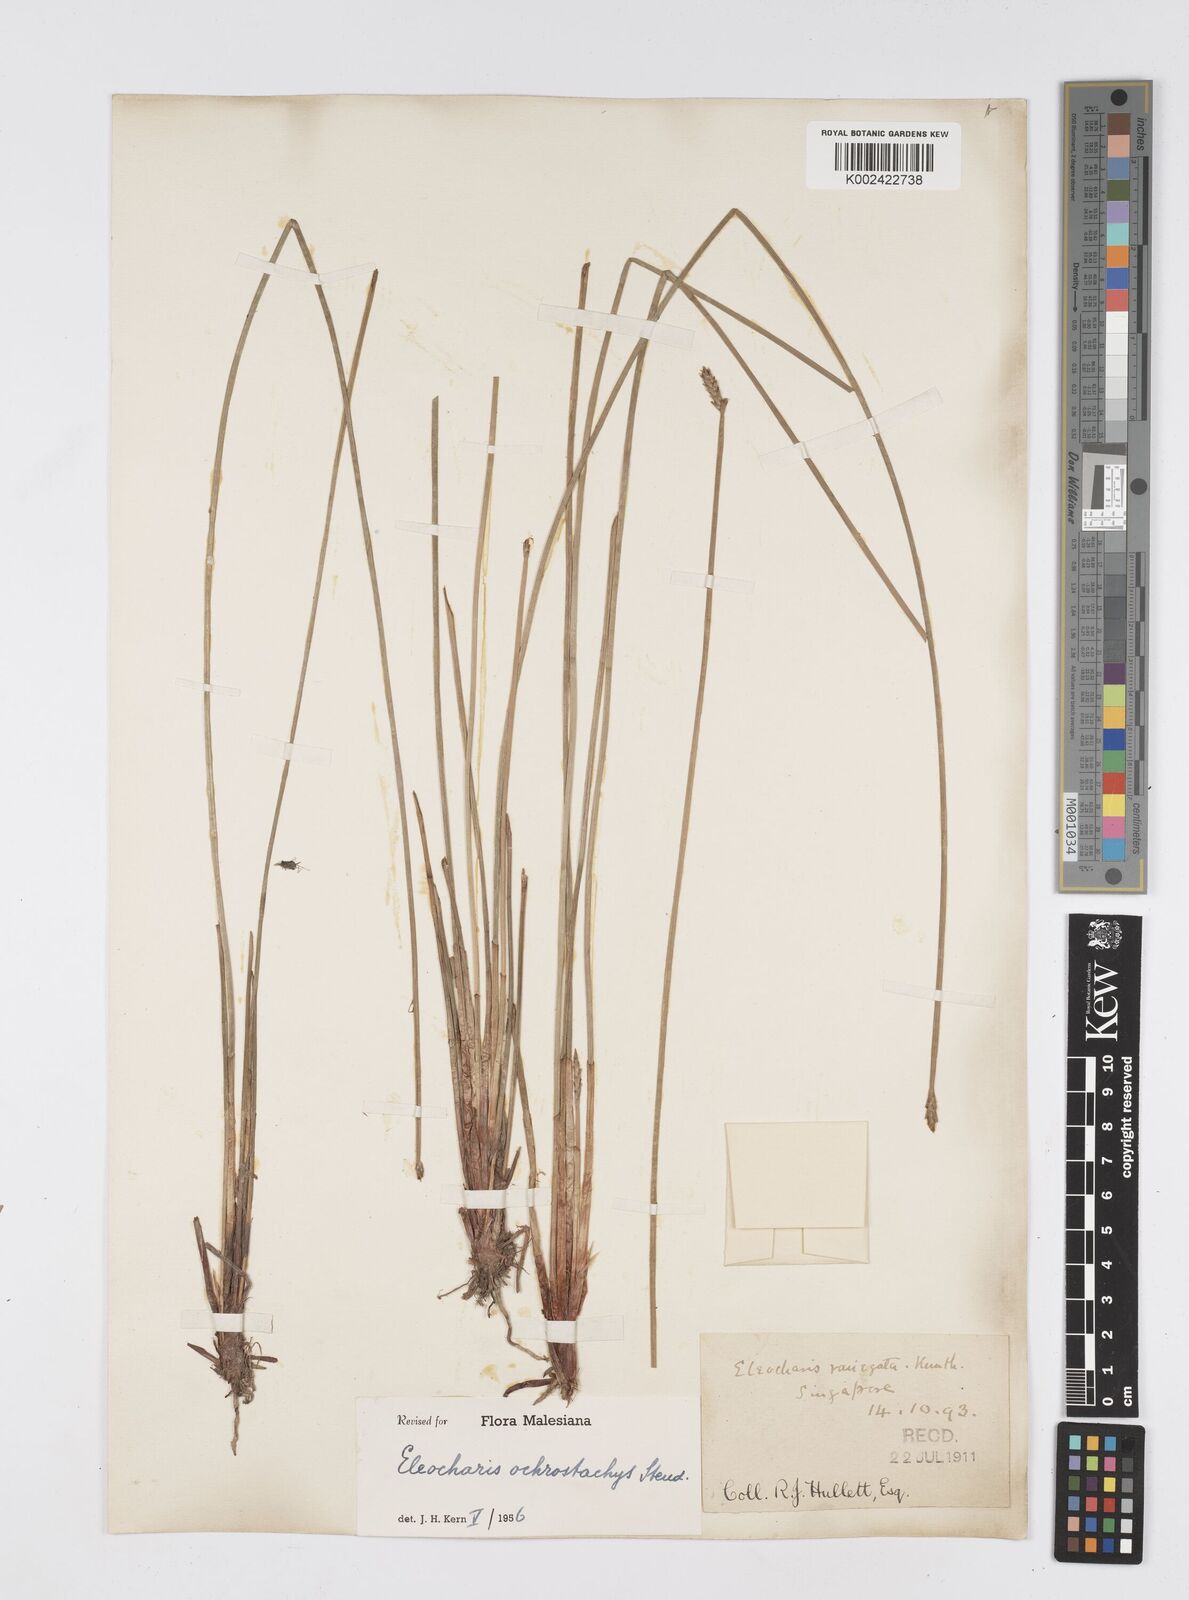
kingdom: Plantae
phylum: Tracheophyta
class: Liliopsida
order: Poales
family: Cyperaceae
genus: Eleocharis
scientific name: Eleocharis ochrostachys
